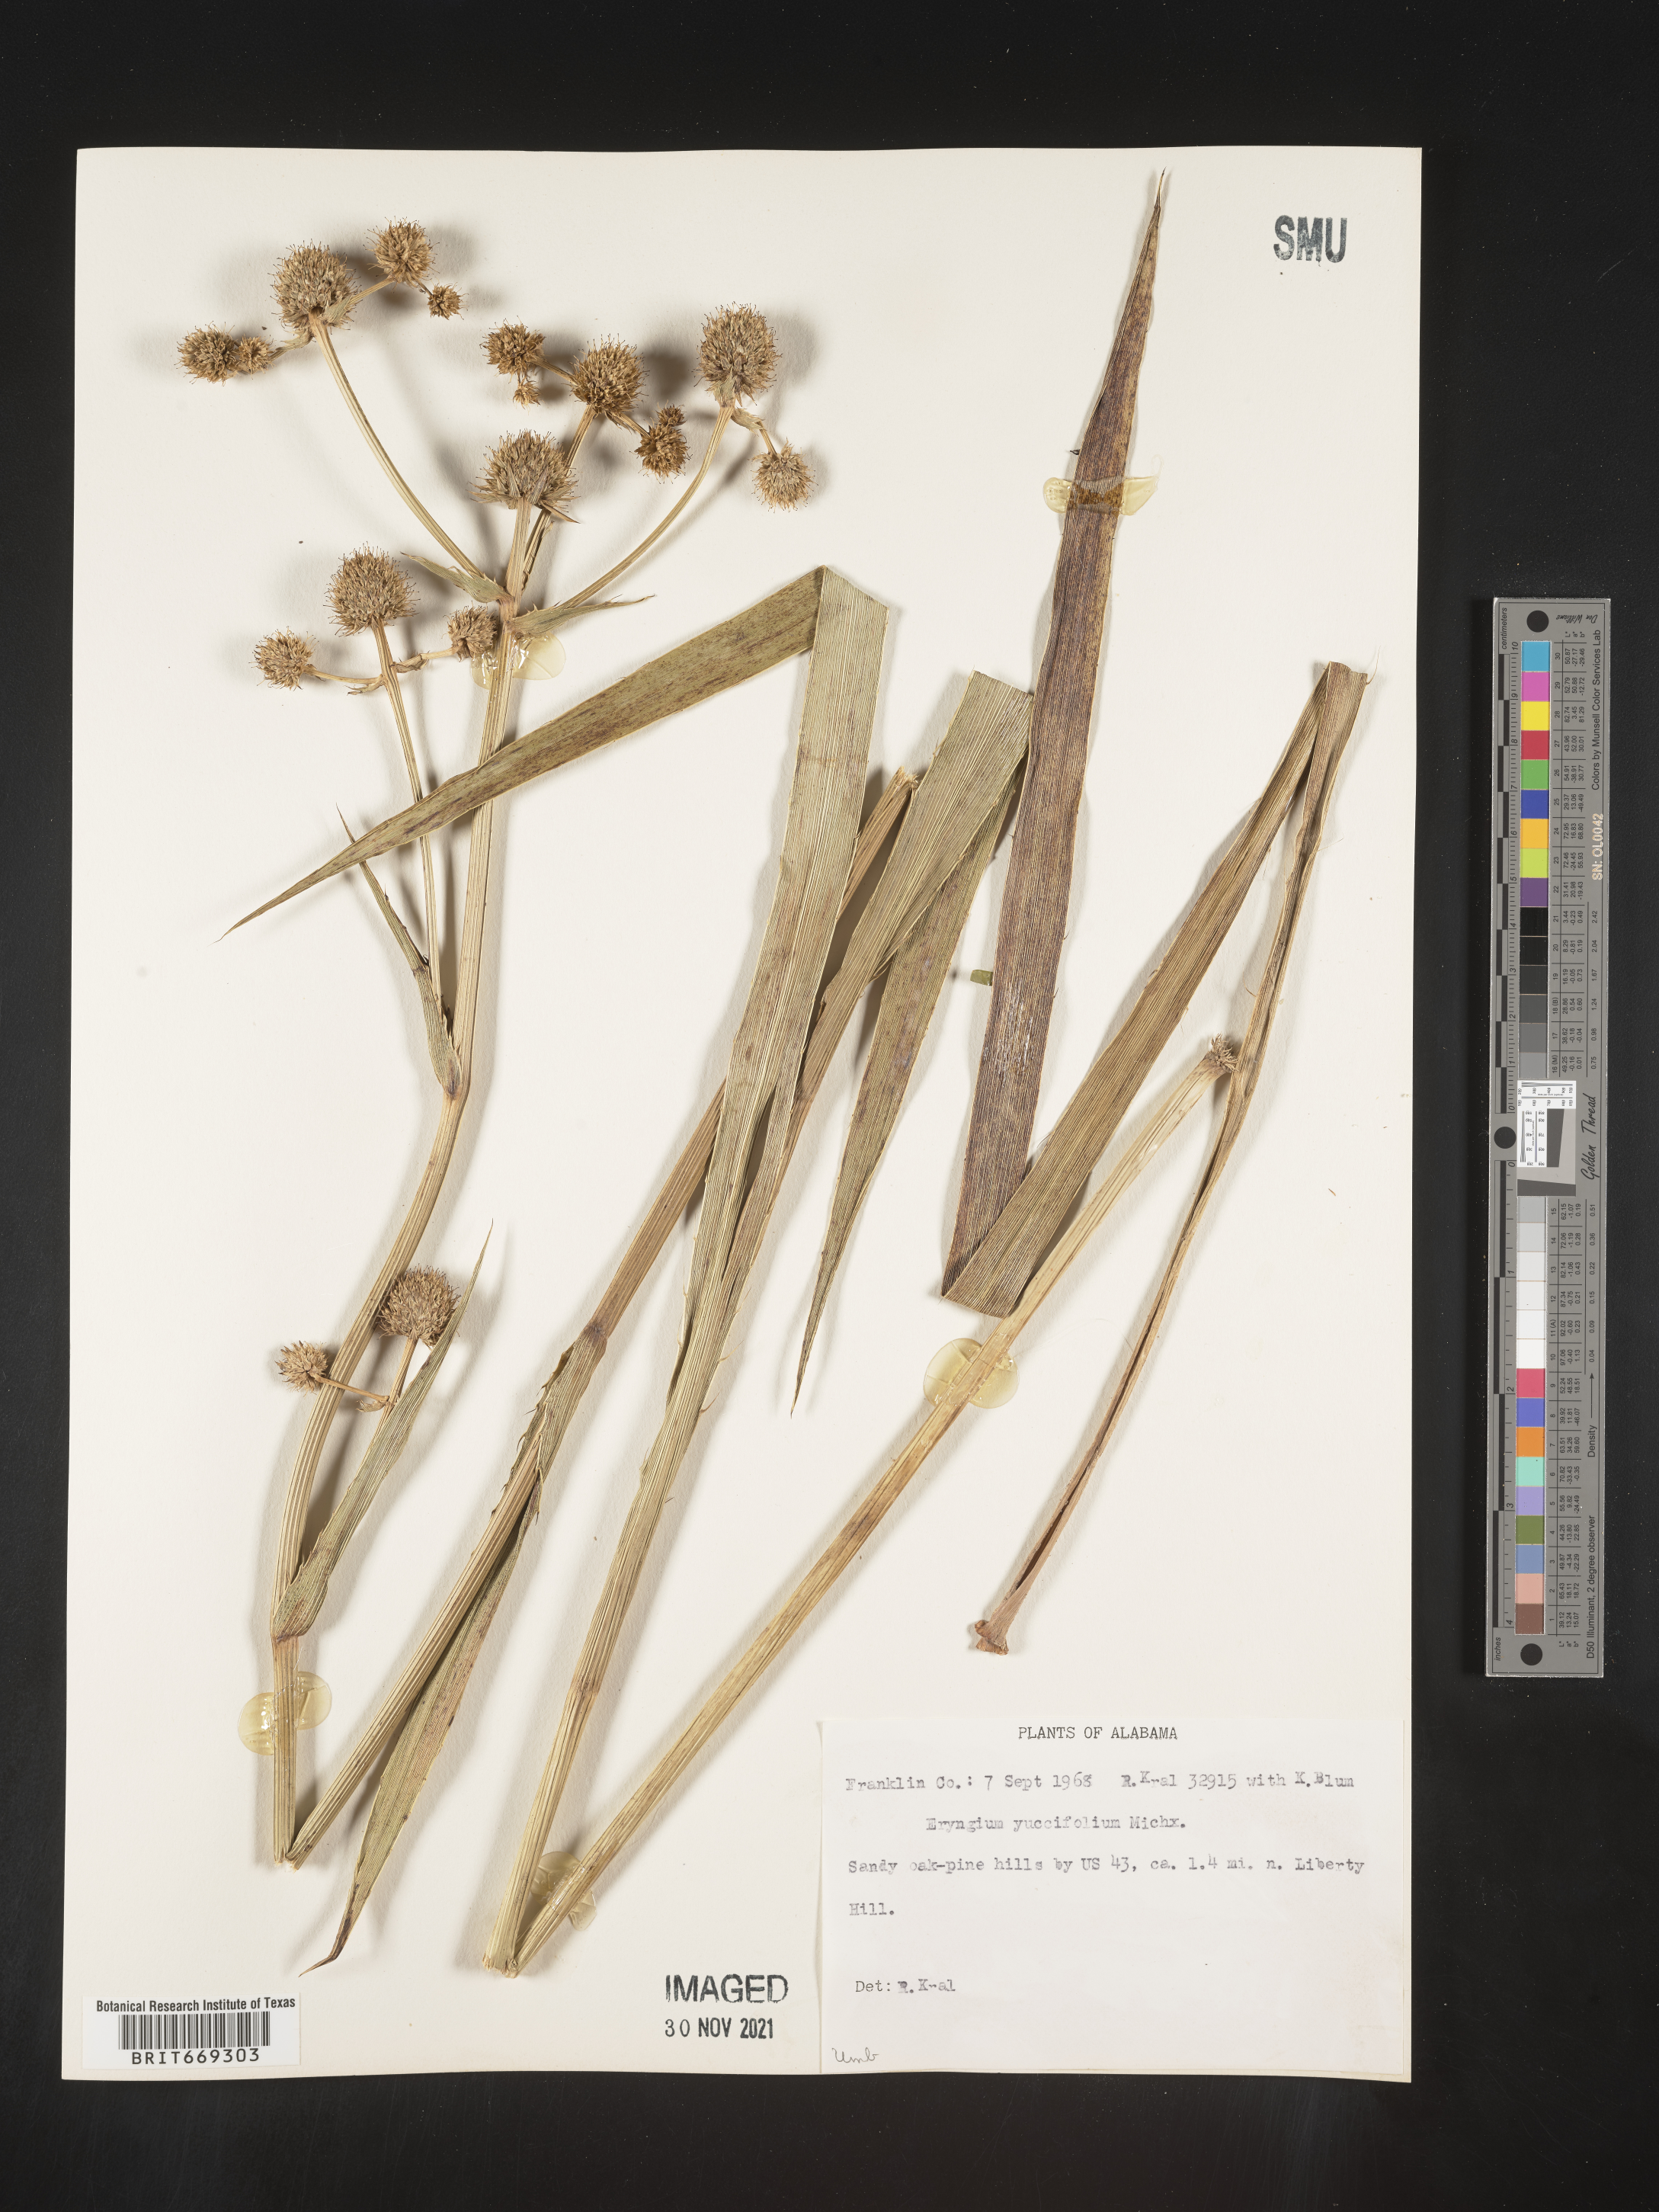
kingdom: Plantae
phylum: Tracheophyta
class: Magnoliopsida
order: Apiales
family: Apiaceae
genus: Eryngium
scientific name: Eryngium yuccifolium
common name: Button eryngo
